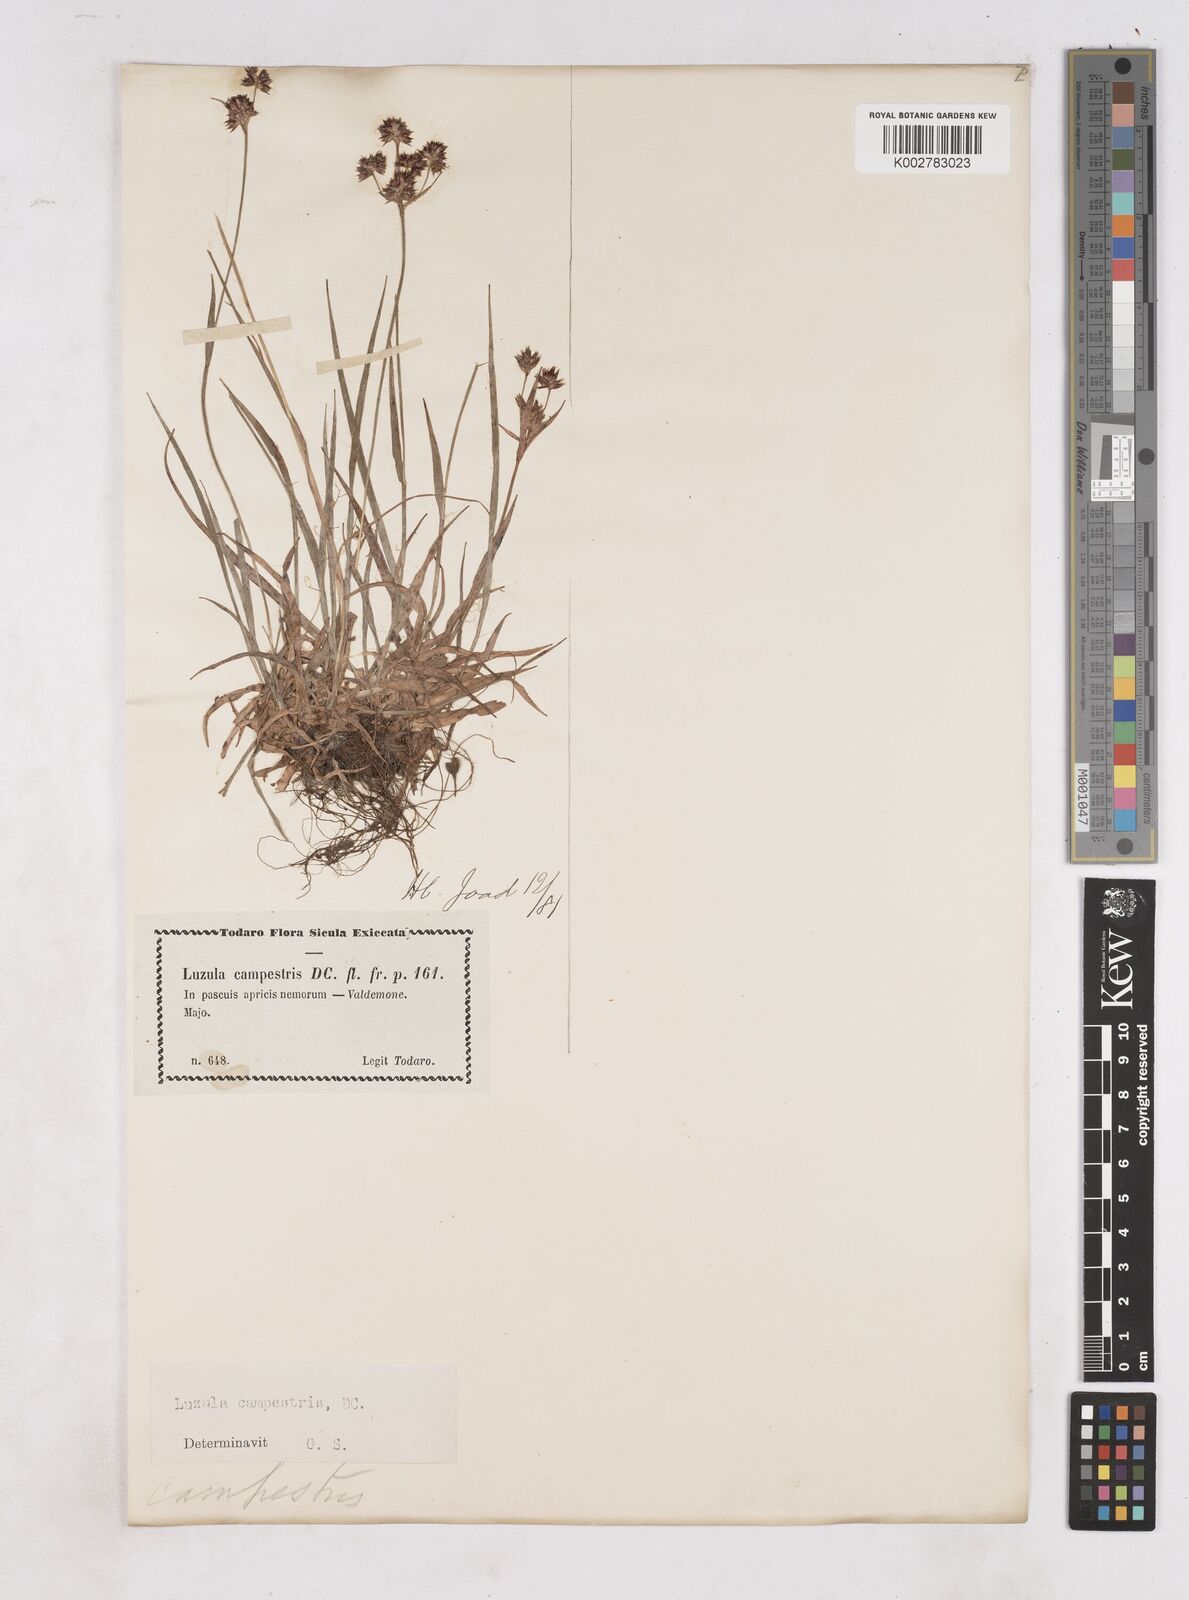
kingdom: Plantae
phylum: Tracheophyta
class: Liliopsida
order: Poales
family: Juncaceae
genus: Luzula
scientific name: Luzula campestris
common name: Field wood-rush
